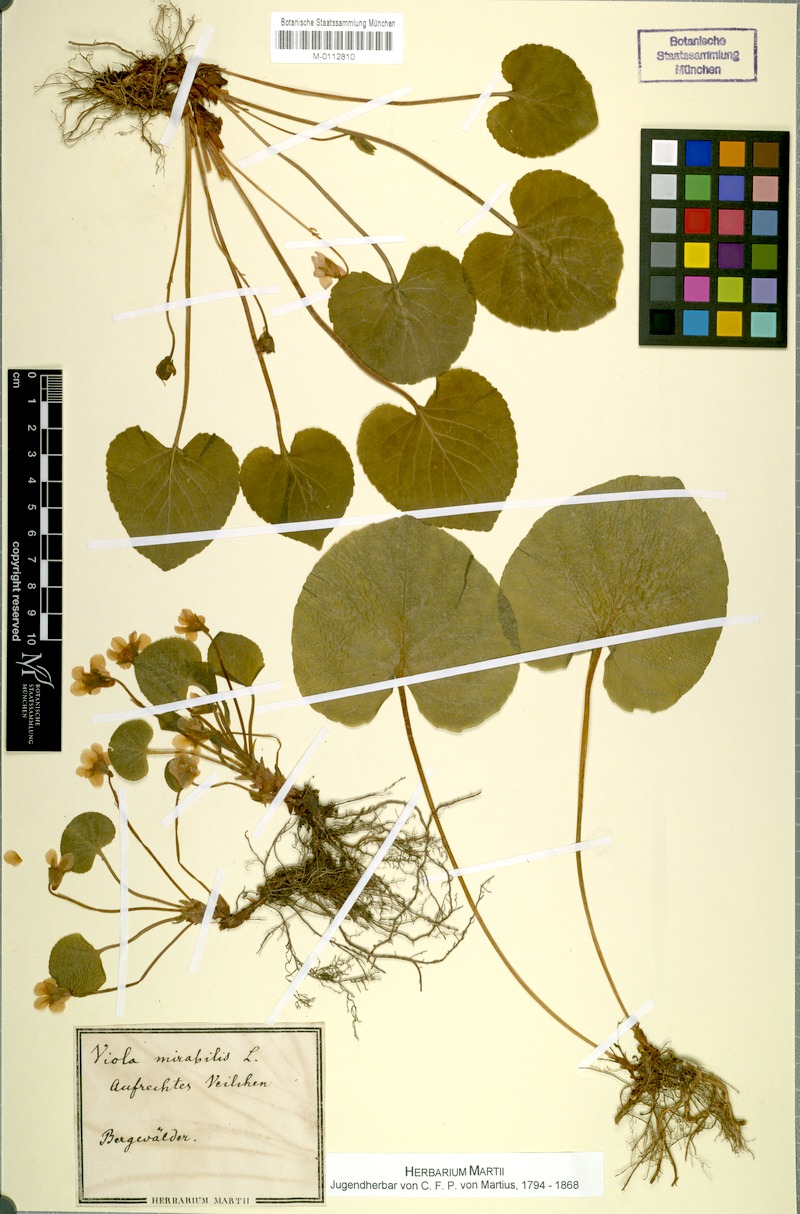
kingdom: Plantae
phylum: Tracheophyta
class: Magnoliopsida
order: Malpighiales
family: Violaceae
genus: Viola
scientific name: Viola mirabilis
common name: Wonder violet
